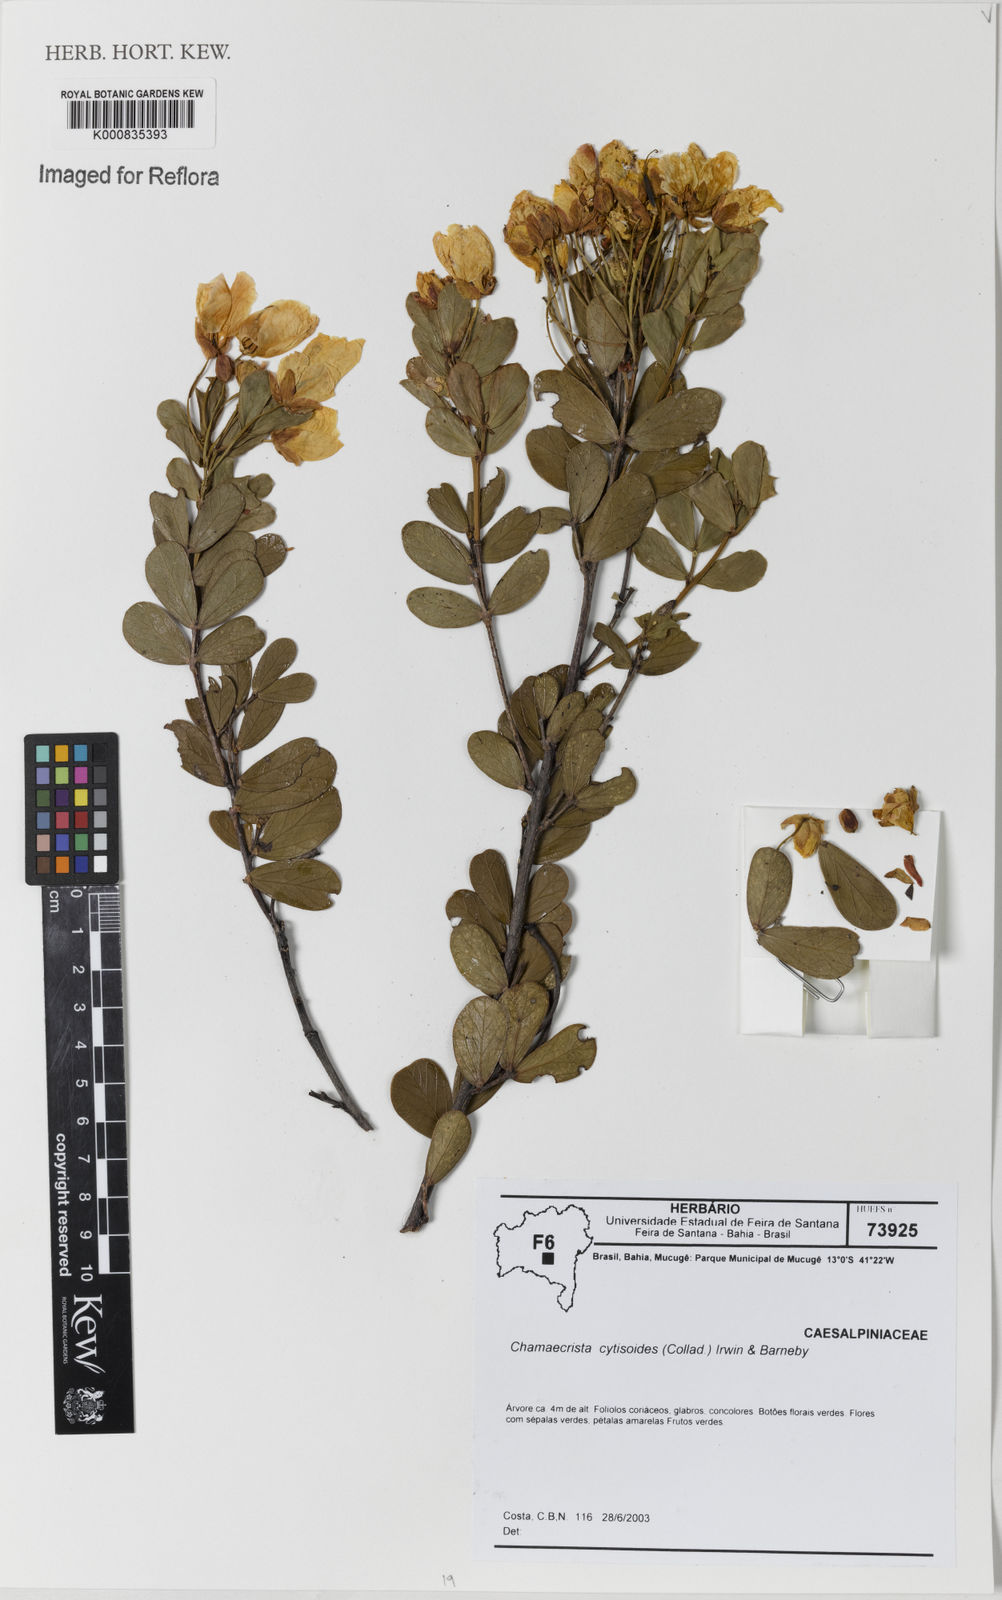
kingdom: Plantae
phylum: Tracheophyta
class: Magnoliopsida
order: Fabales
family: Fabaceae
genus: Chamaecrista
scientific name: Chamaecrista
